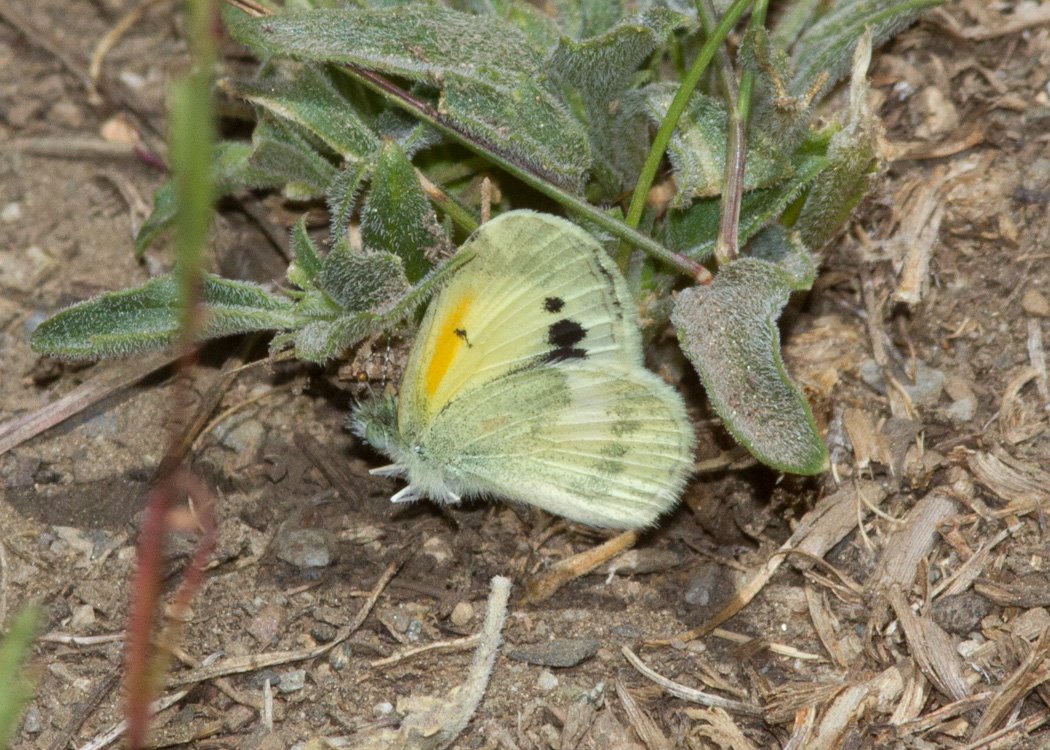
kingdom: Animalia
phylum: Arthropoda
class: Insecta
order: Lepidoptera
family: Pieridae
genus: Nathalis
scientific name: Nathalis iole
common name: Dainty Sulphur
